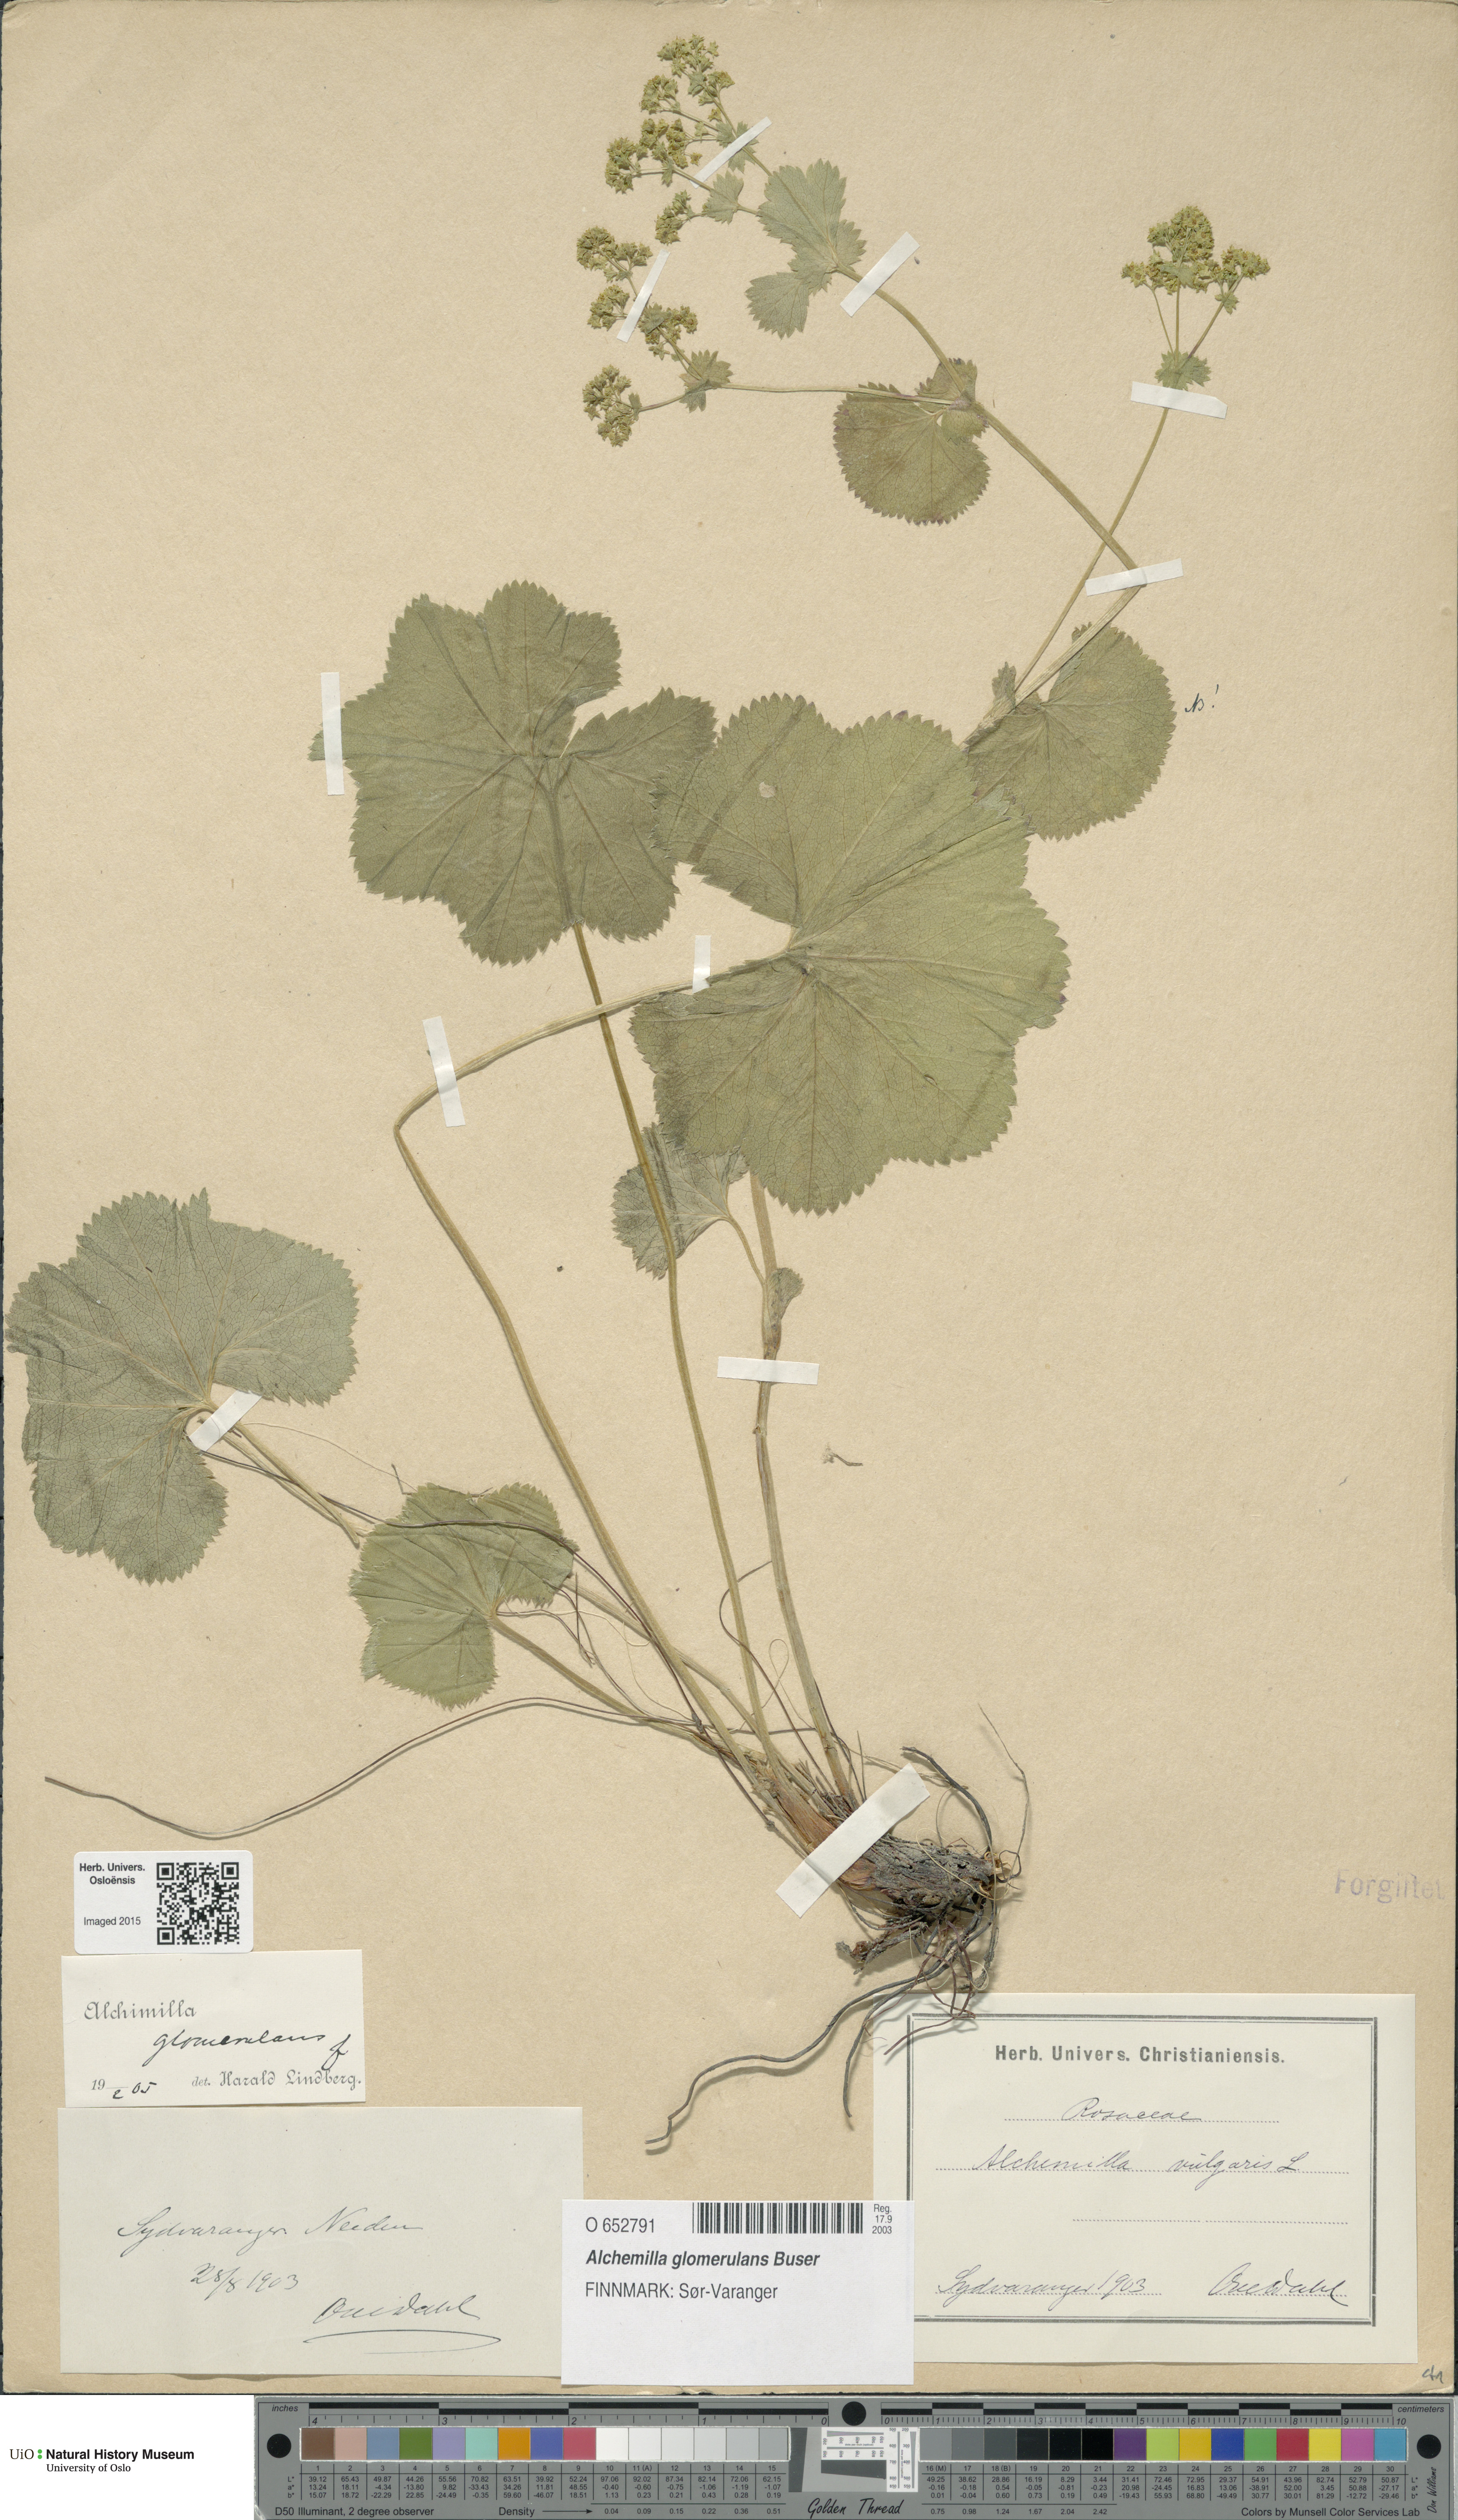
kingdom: Plantae
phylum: Tracheophyta
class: Magnoliopsida
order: Rosales
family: Rosaceae
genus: Alchemilla
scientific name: Alchemilla glomerulans
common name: Clustered lady's mantle
